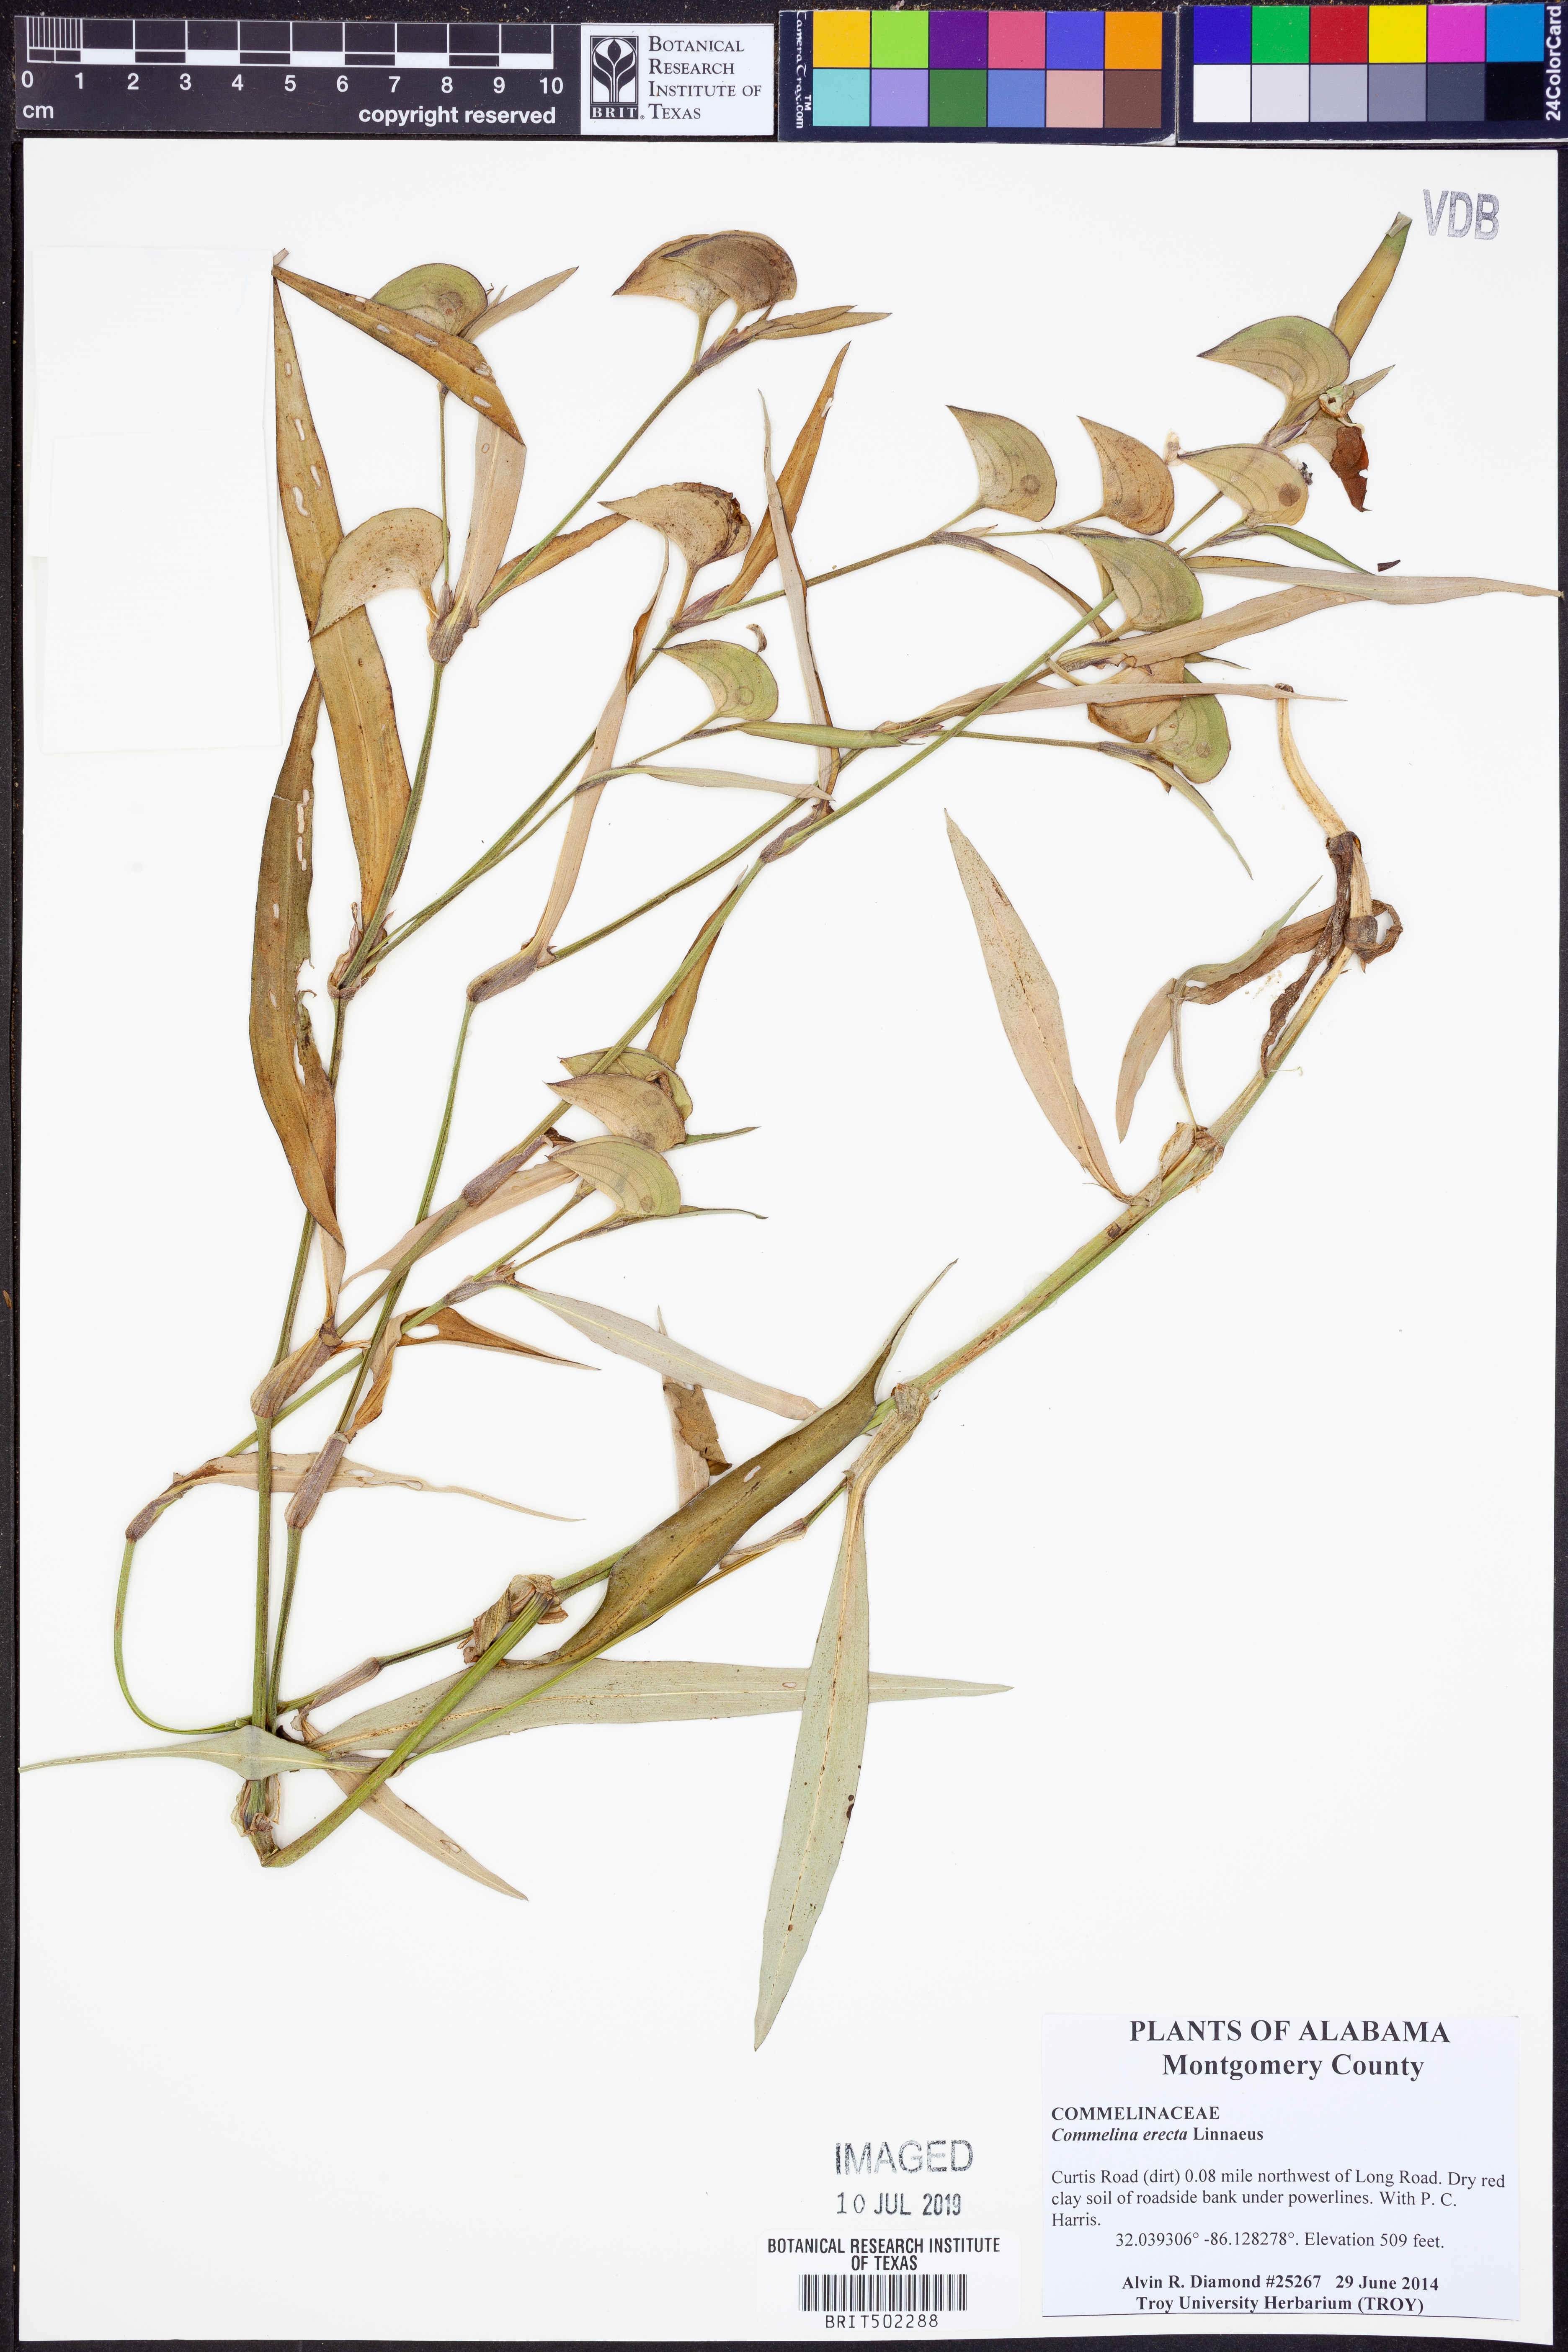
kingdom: Plantae
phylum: Tracheophyta
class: Liliopsida
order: Commelinales
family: Commelinaceae
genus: Commelina
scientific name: Commelina erecta
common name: Blousel blommetjie
